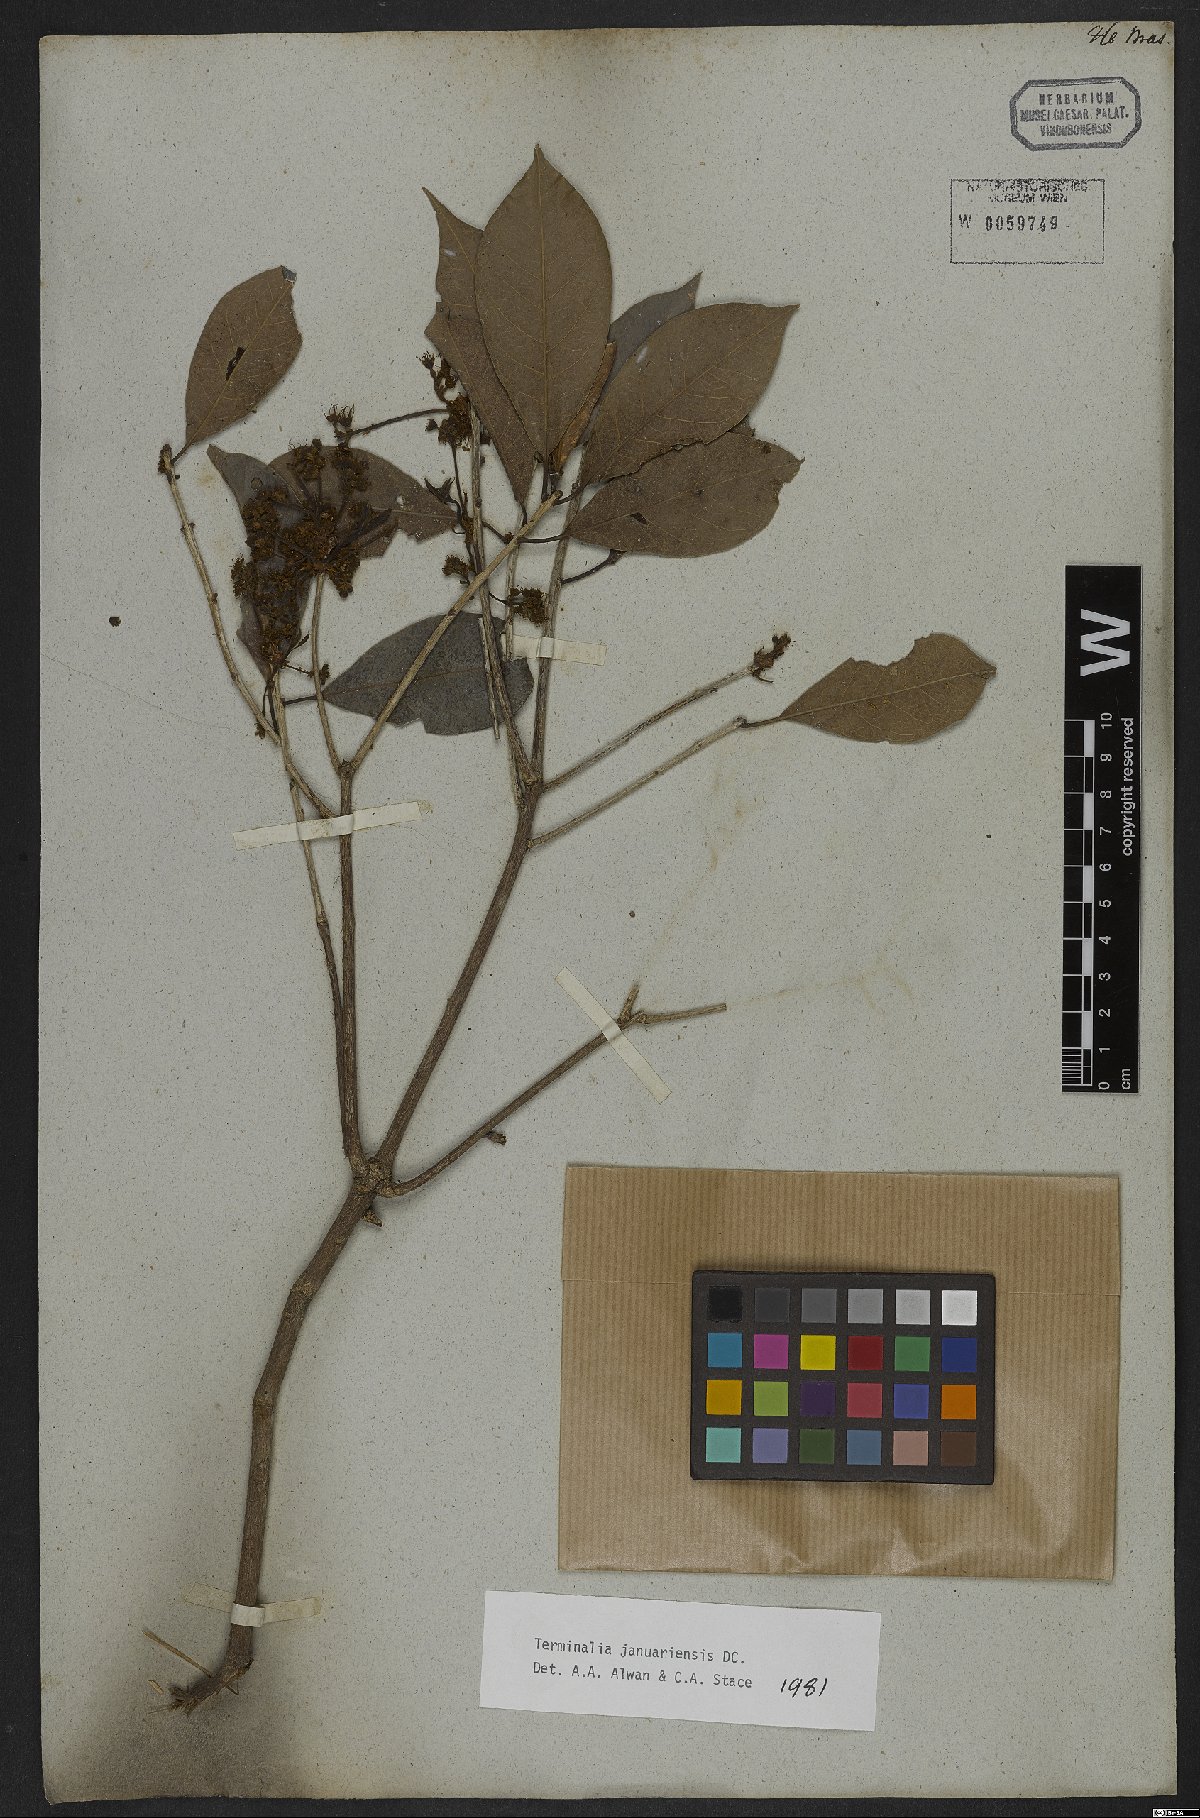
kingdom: Plantae
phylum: Tracheophyta
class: Magnoliopsida
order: Myrtales
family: Combretaceae
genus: Terminalia
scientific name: Terminalia januariensis
